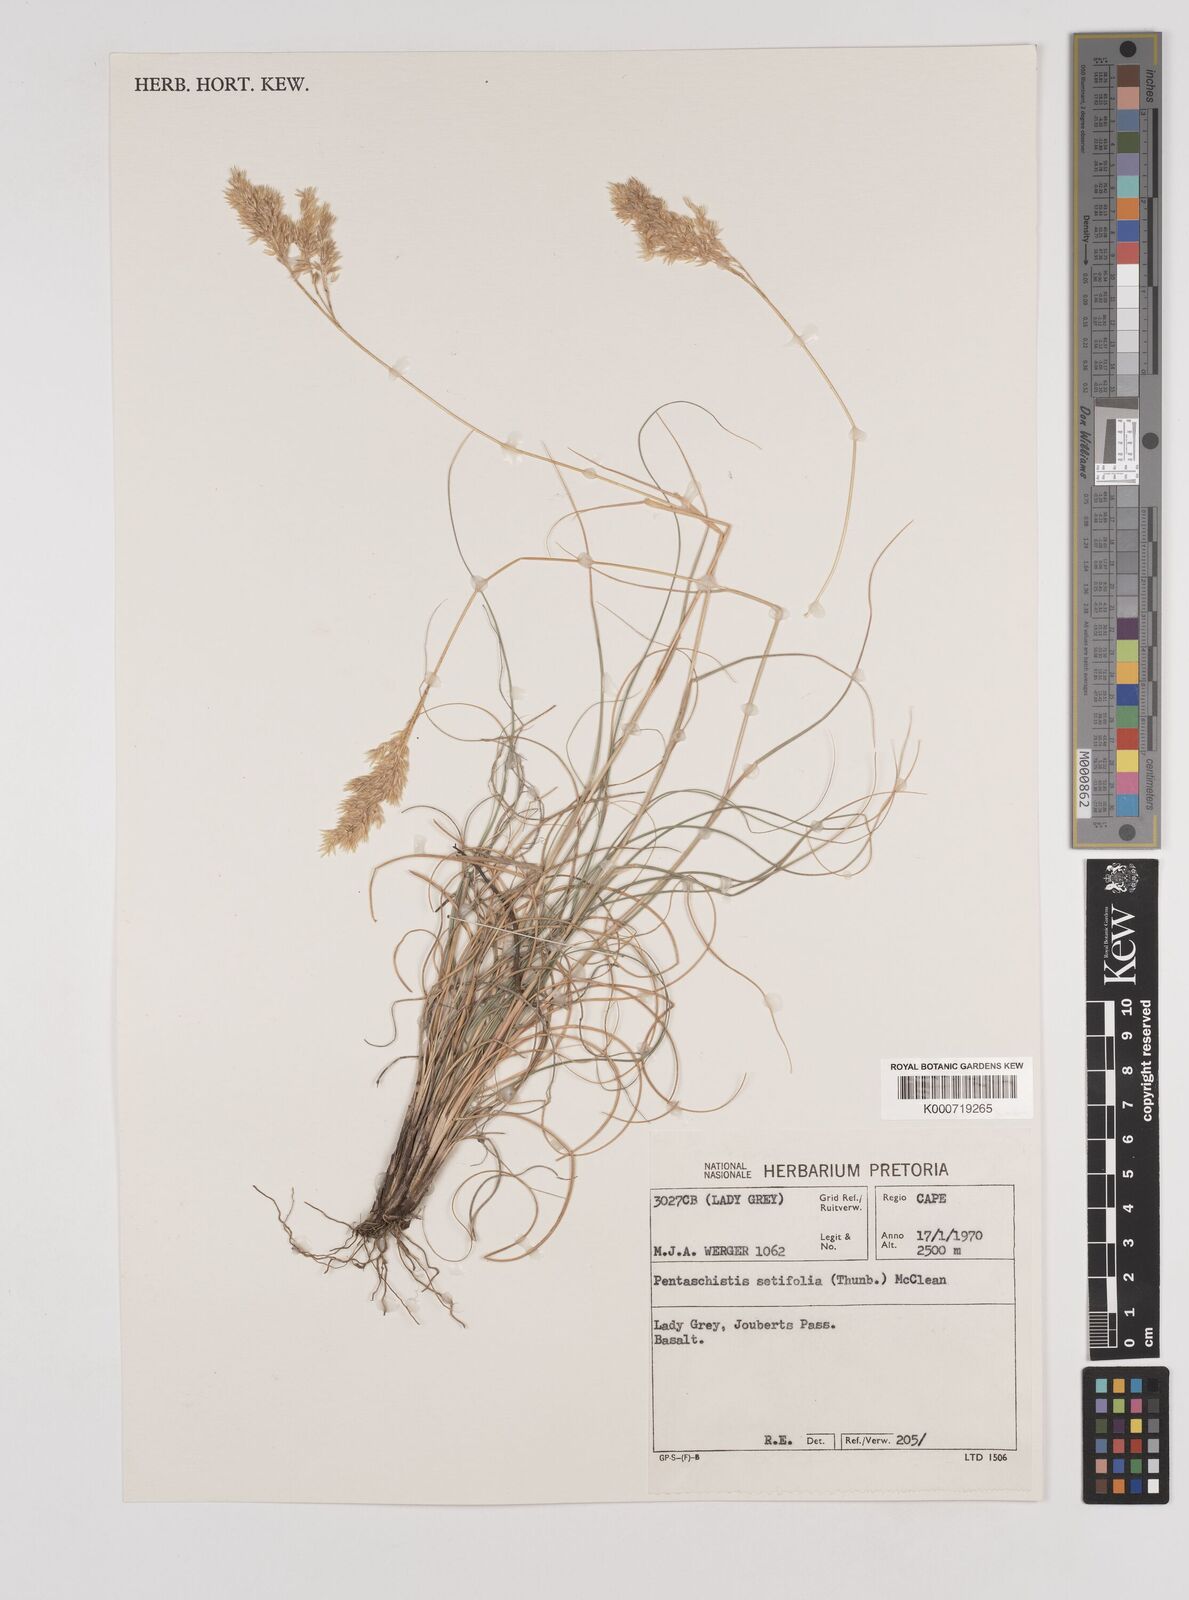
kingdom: Plantae
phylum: Tracheophyta
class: Liliopsida
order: Poales
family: Poaceae
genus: Pentameris
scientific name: Pentameris setifolia
